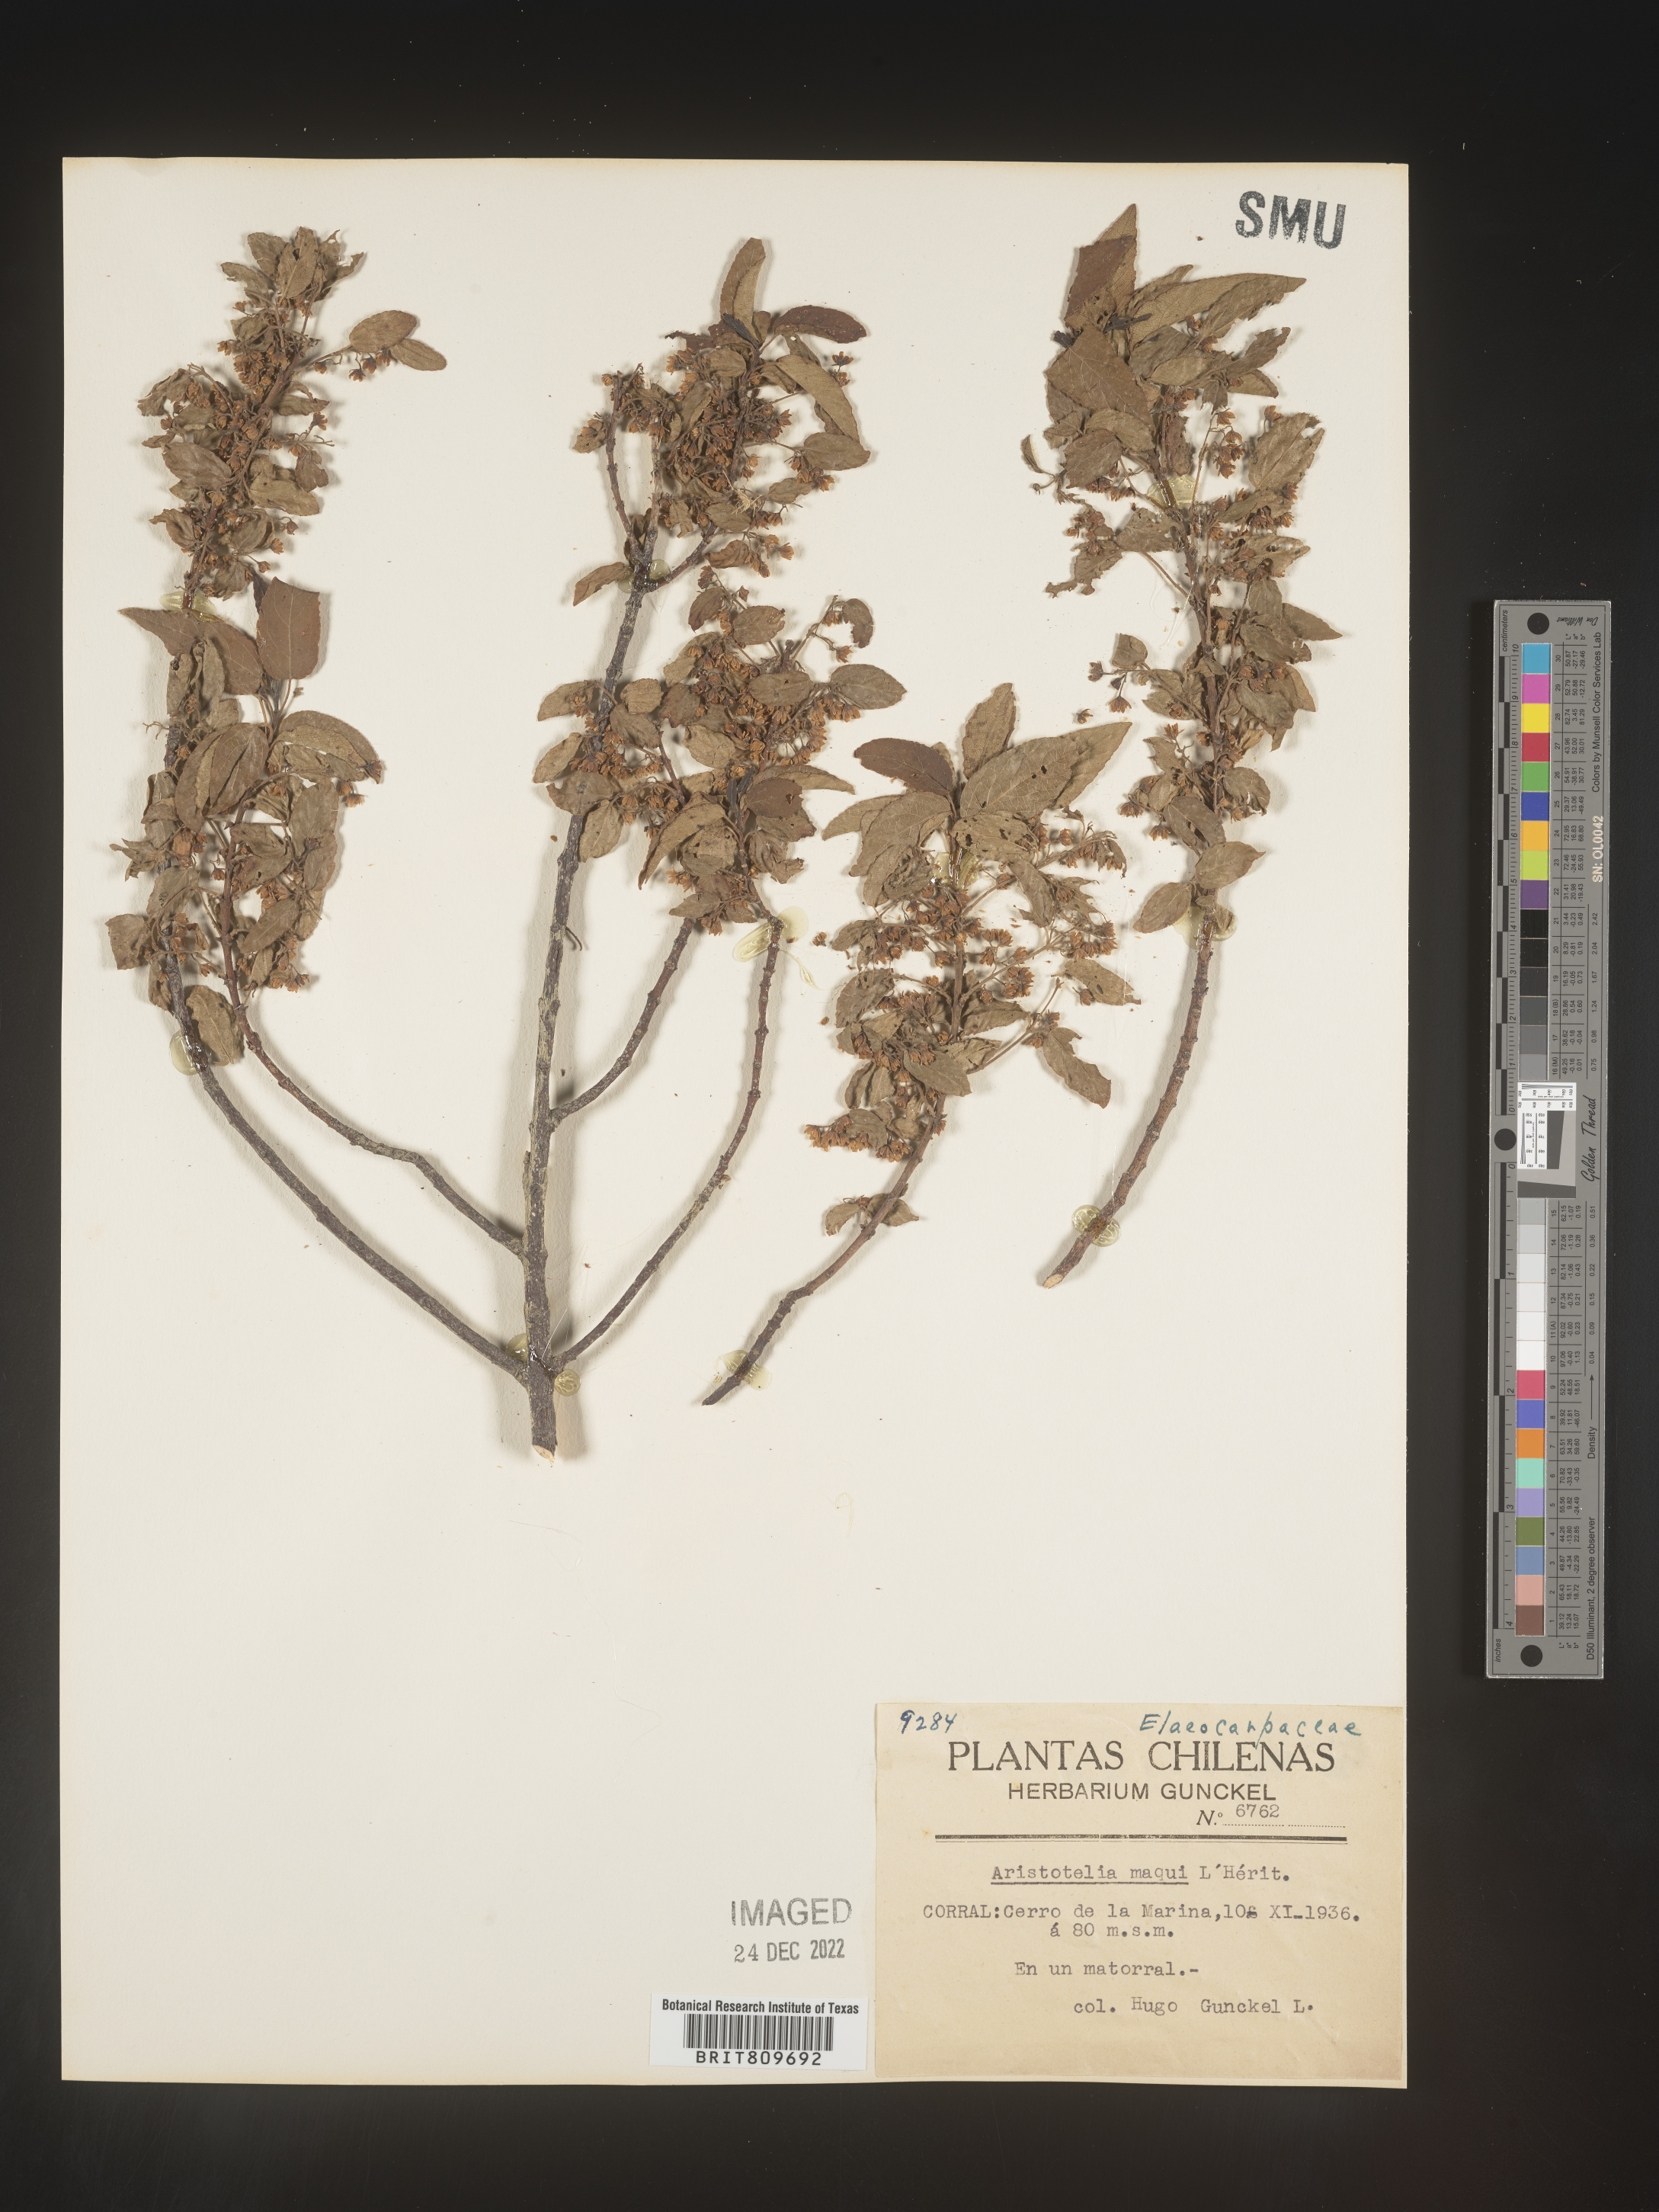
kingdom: Plantae
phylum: Tracheophyta
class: Magnoliopsida
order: Oxalidales
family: Elaeocarpaceae
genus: Aristotelia
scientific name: Aristotelia
